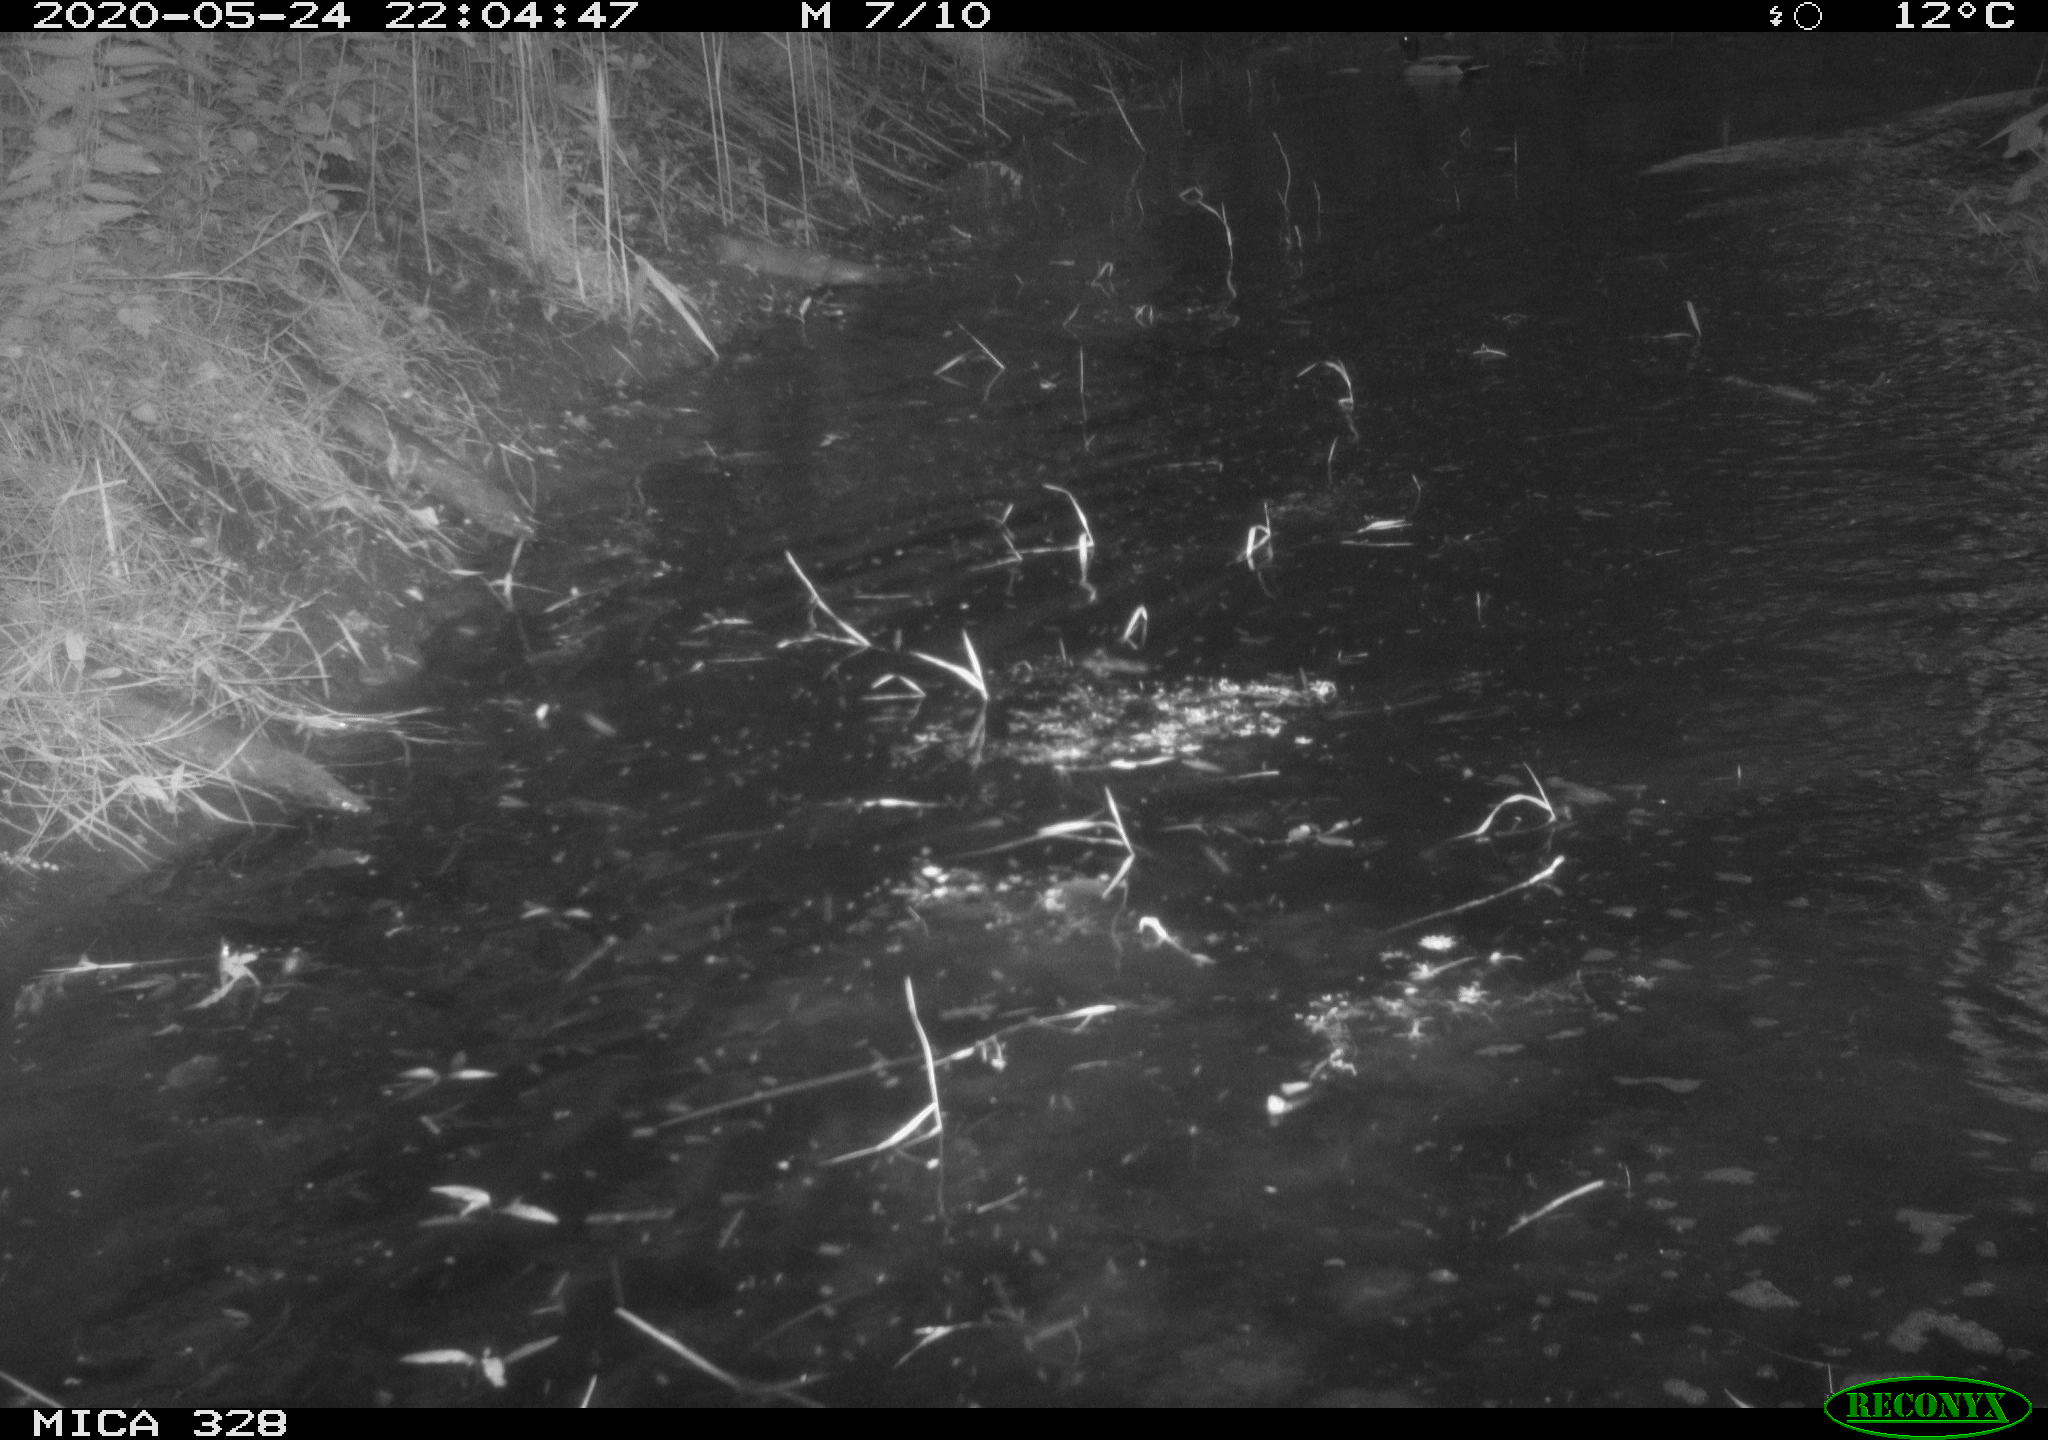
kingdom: Animalia
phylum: Chordata
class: Aves
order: Anseriformes
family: Anatidae
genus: Anas
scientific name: Anas platyrhynchos
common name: Mallard
